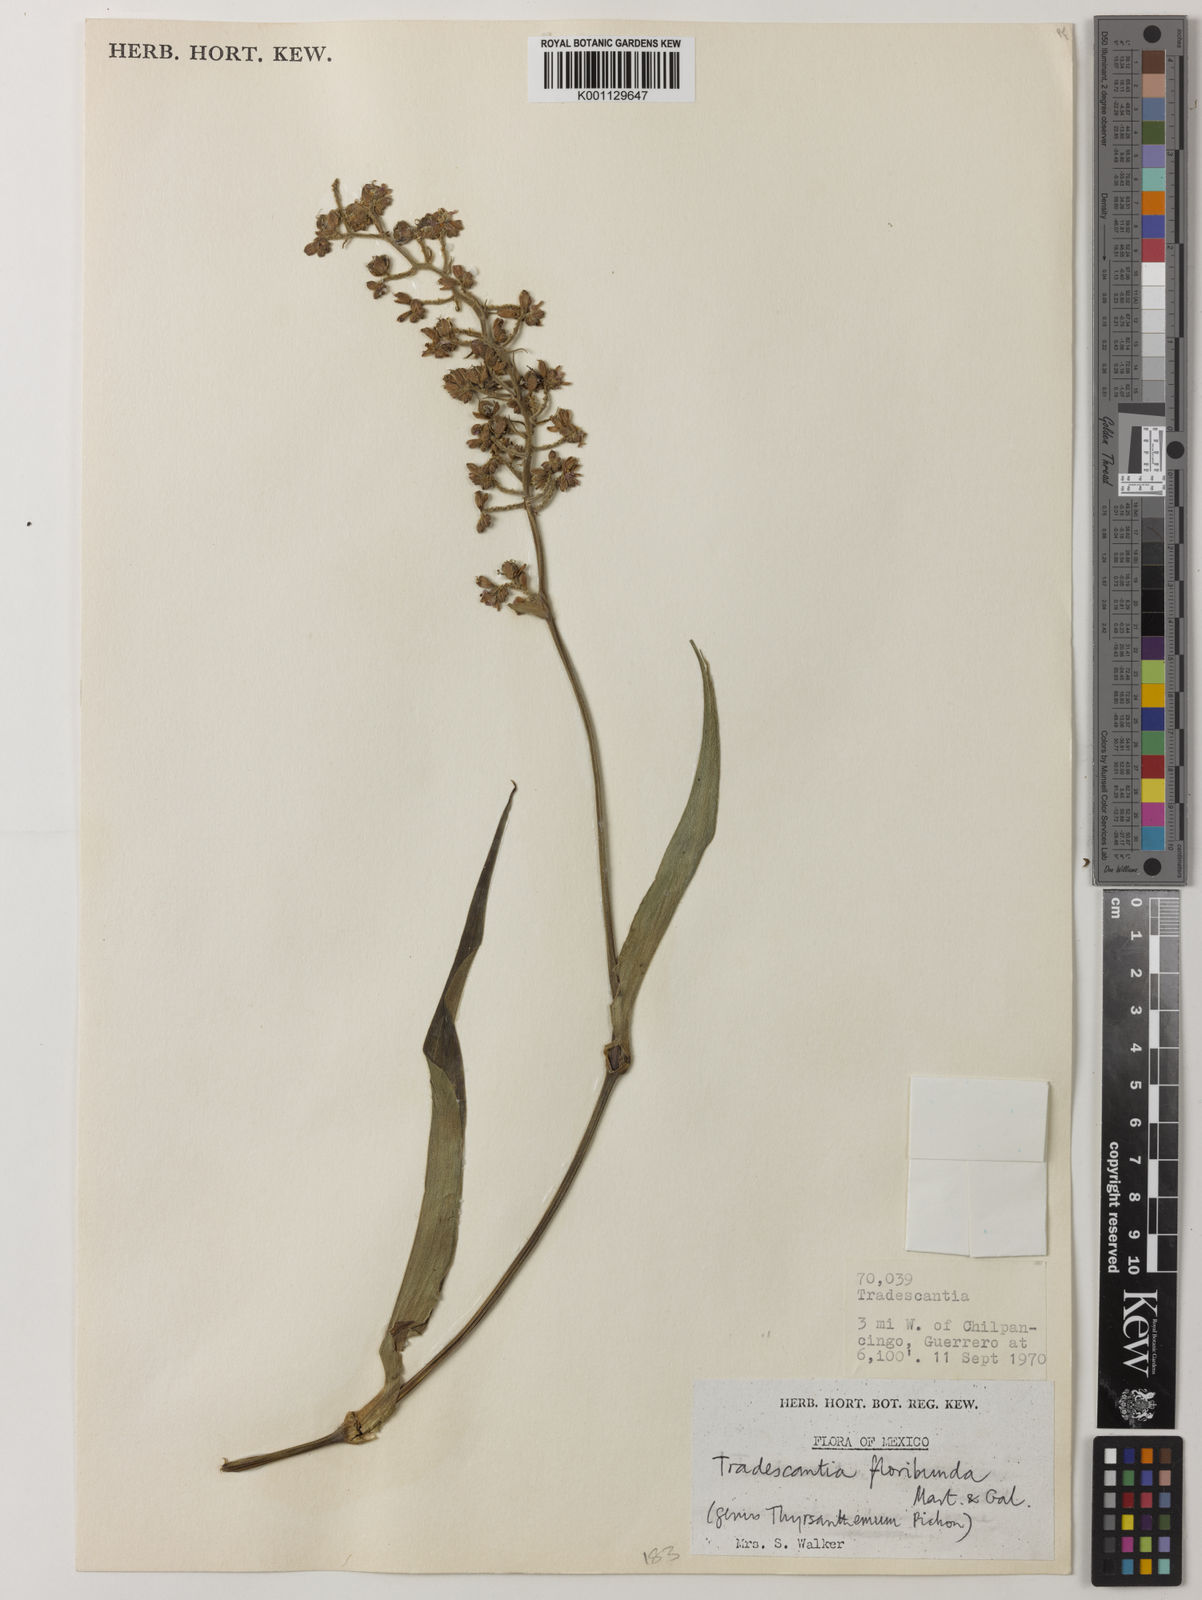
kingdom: Plantae
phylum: Tracheophyta
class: Liliopsida
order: Commelinales
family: Commelinaceae
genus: Thyrsanthemum
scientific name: Thyrsanthemum floribundum
